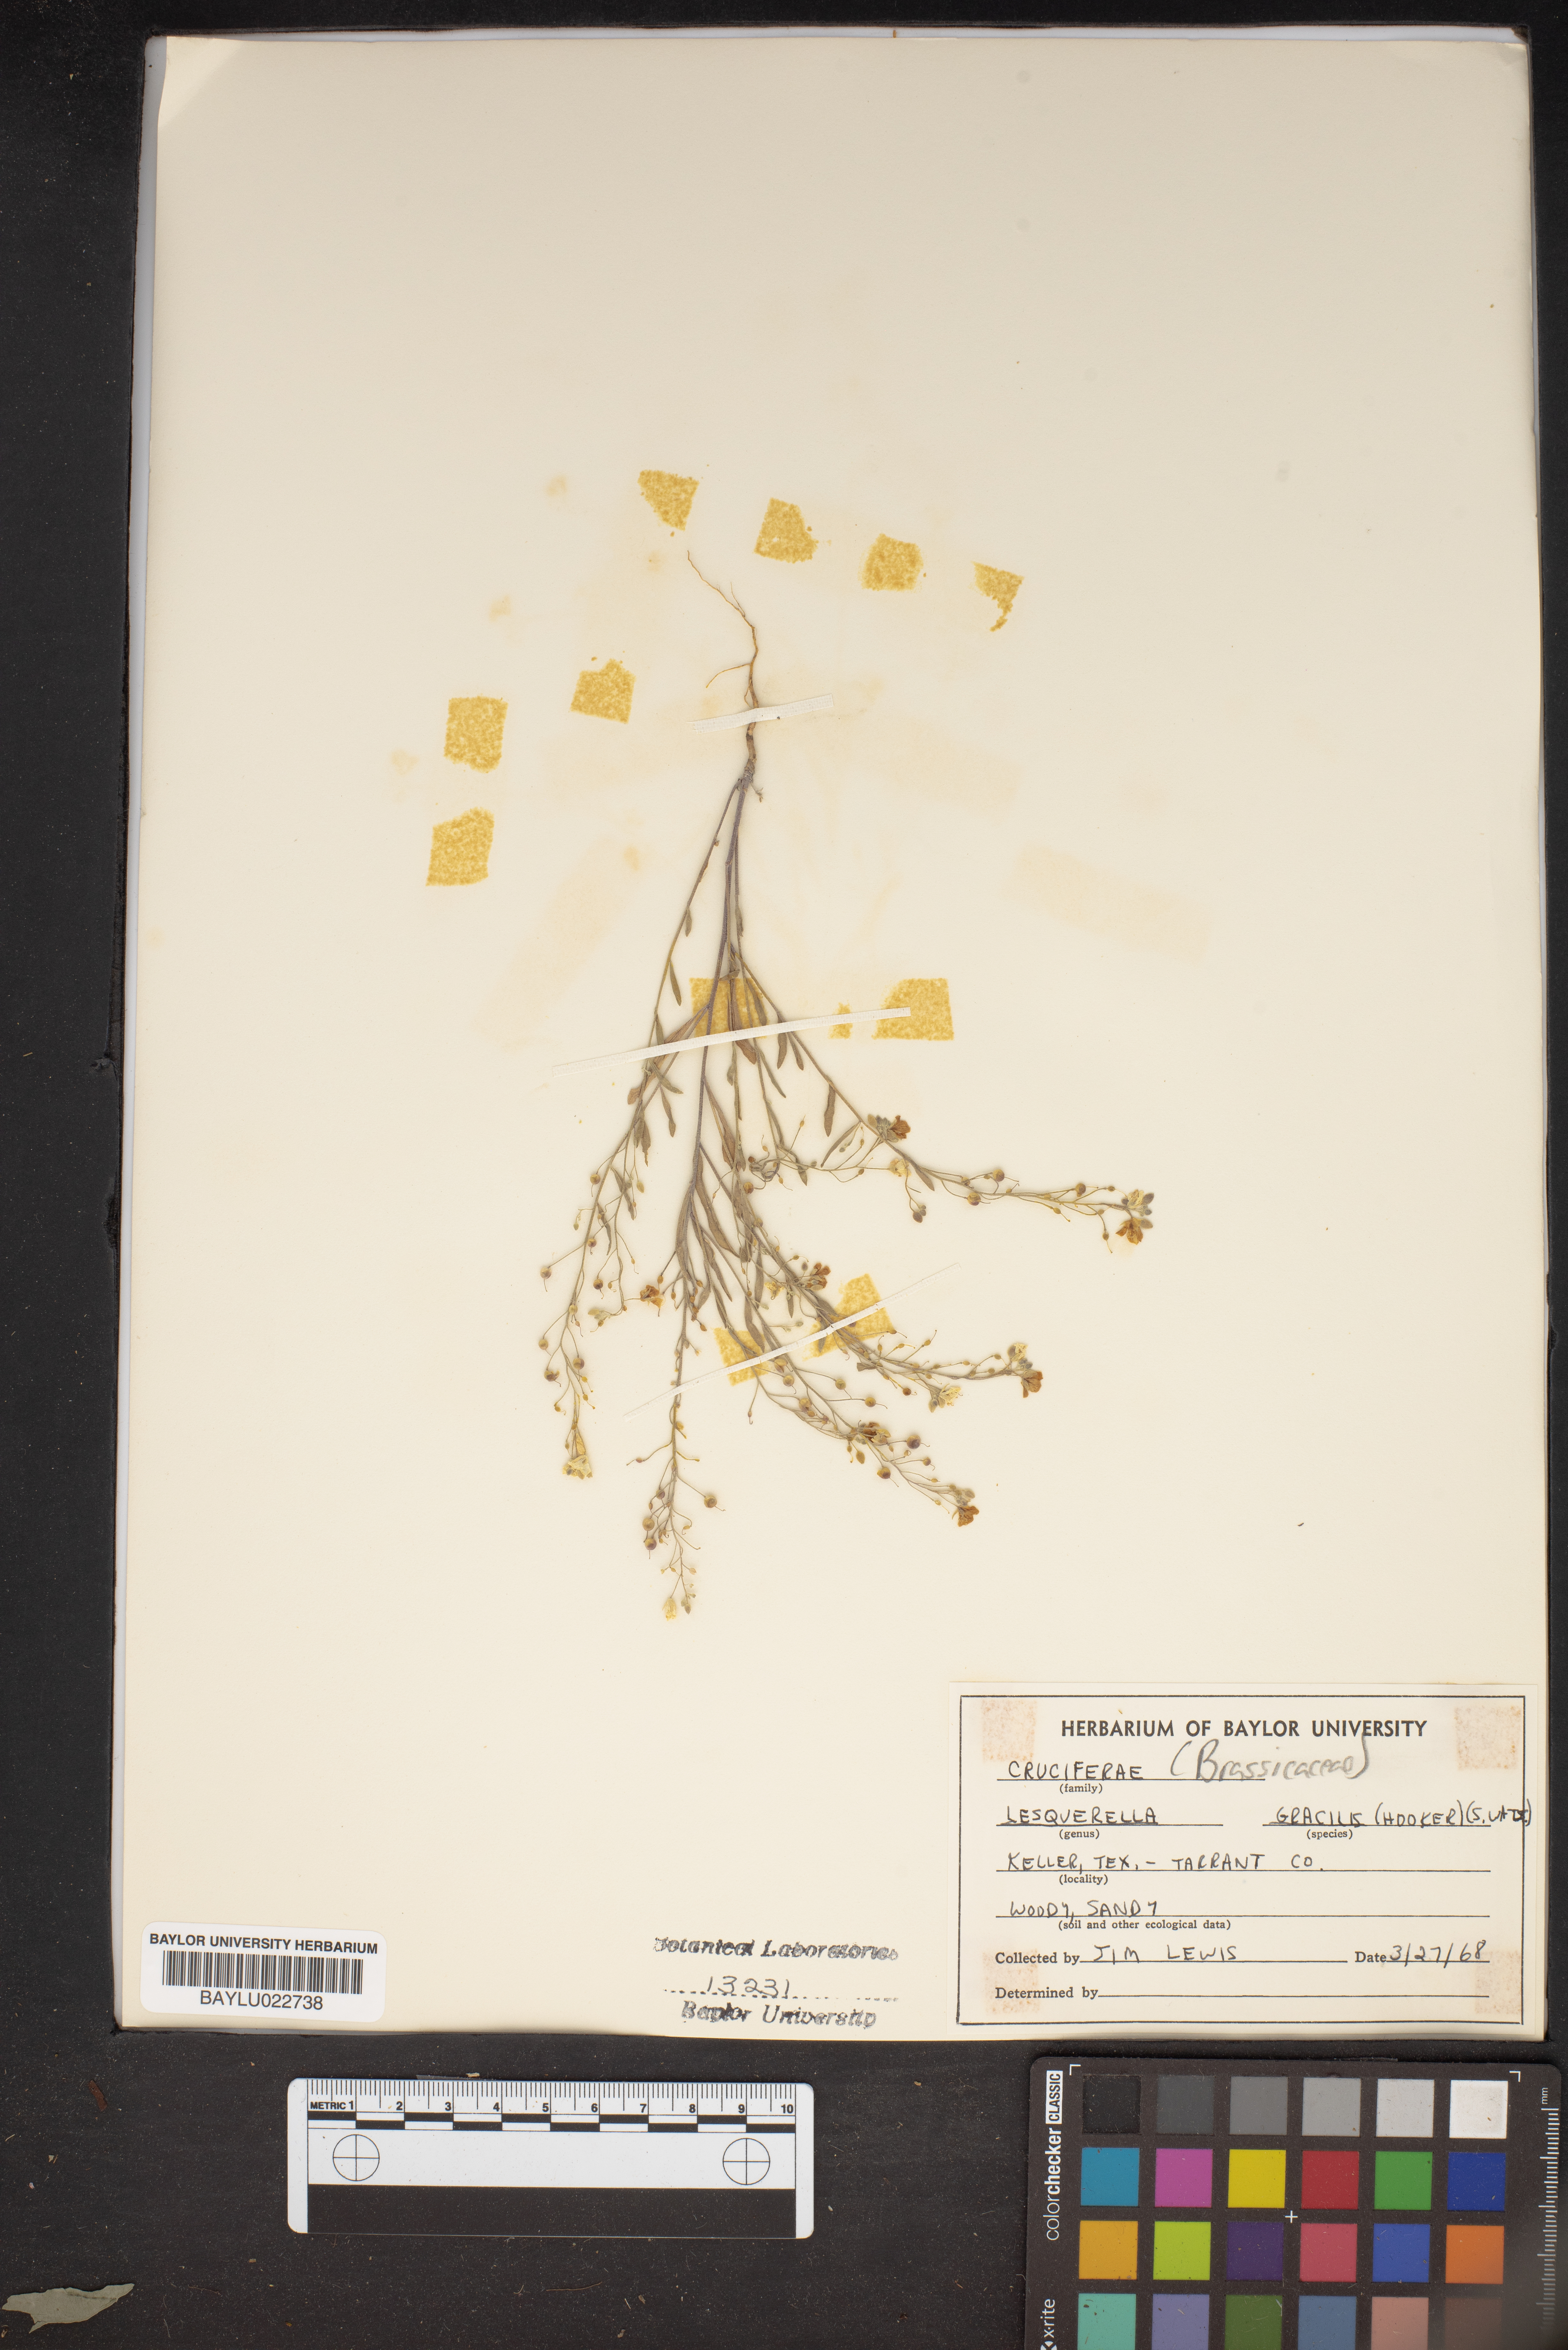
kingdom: Plantae
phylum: Tracheophyta
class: Magnoliopsida
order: Brassicales
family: Brassicaceae
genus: Physaria
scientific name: Physaria gracilis
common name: Spreading bladderpod
